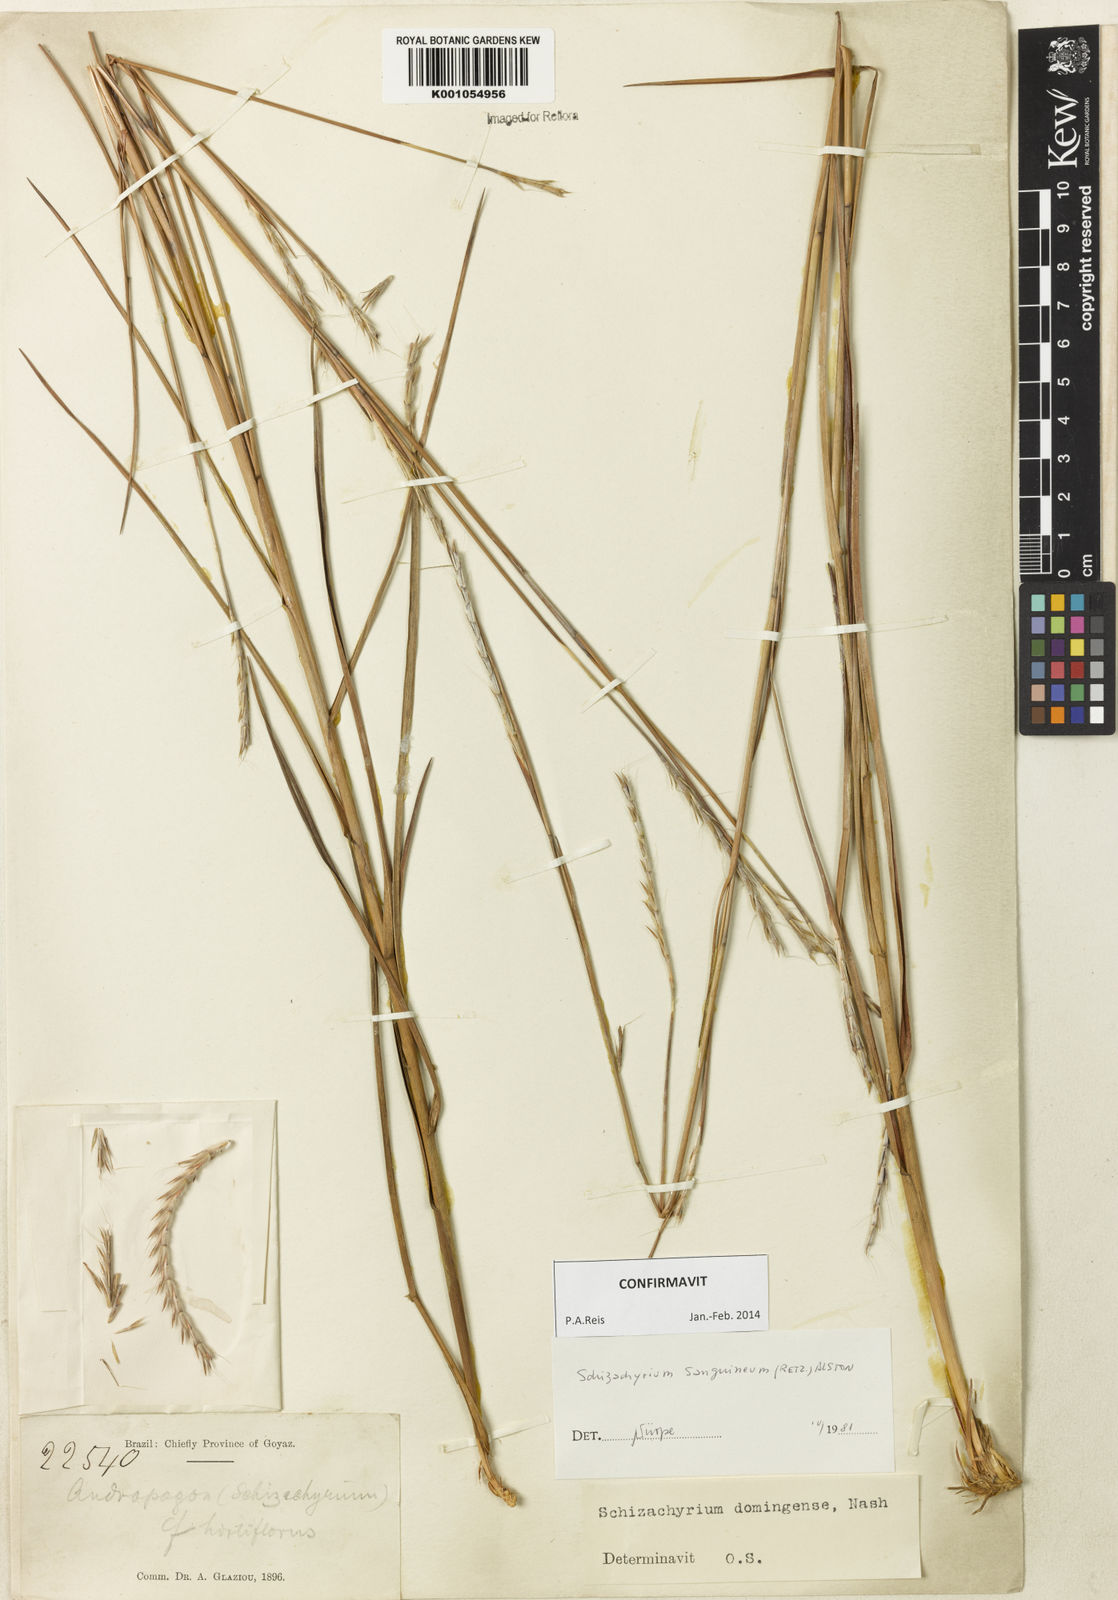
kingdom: Plantae
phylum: Tracheophyta
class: Liliopsida
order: Poales
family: Poaceae
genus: Schizachyrium
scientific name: Schizachyrium sanguineum
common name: Crimson bluestem
